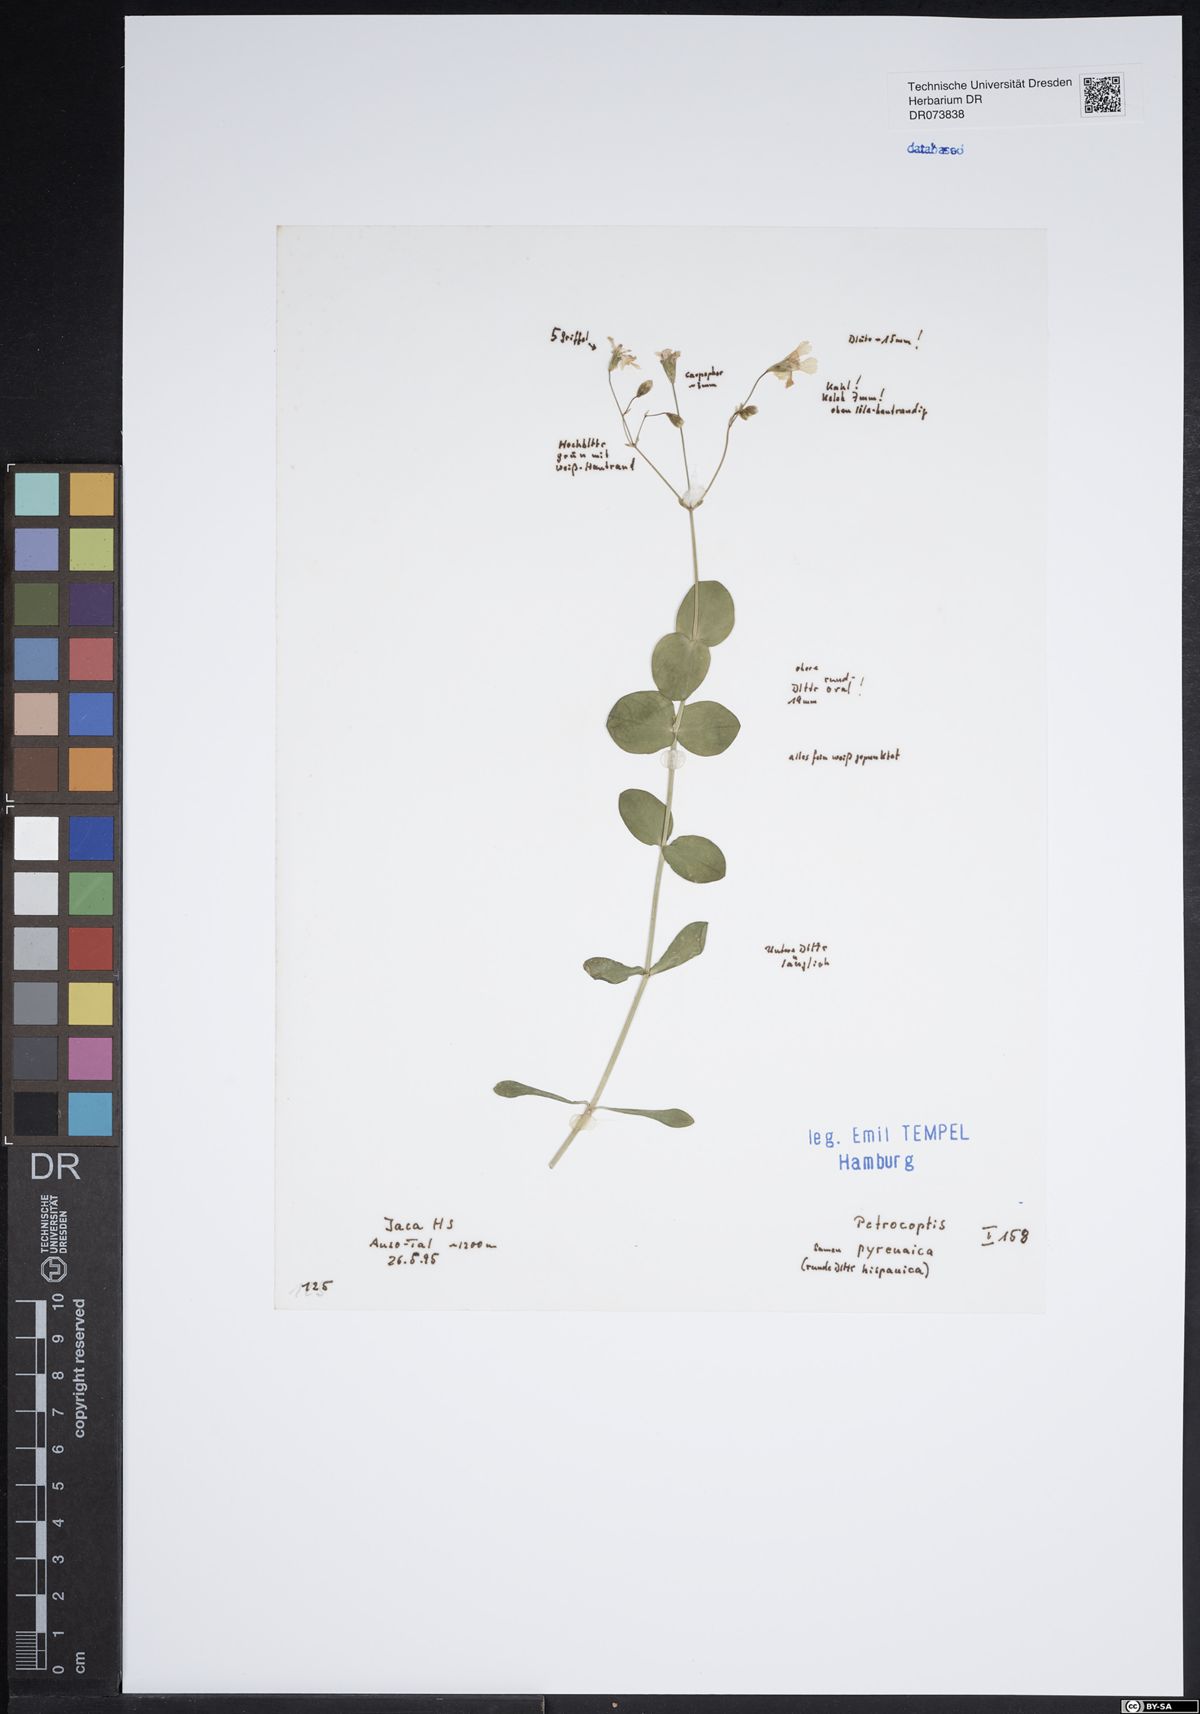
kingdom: Plantae
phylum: Tracheophyta
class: Magnoliopsida
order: Caryophyllales
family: Caryophyllaceae
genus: Petrocoptis
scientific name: Petrocoptis pyrenaica
